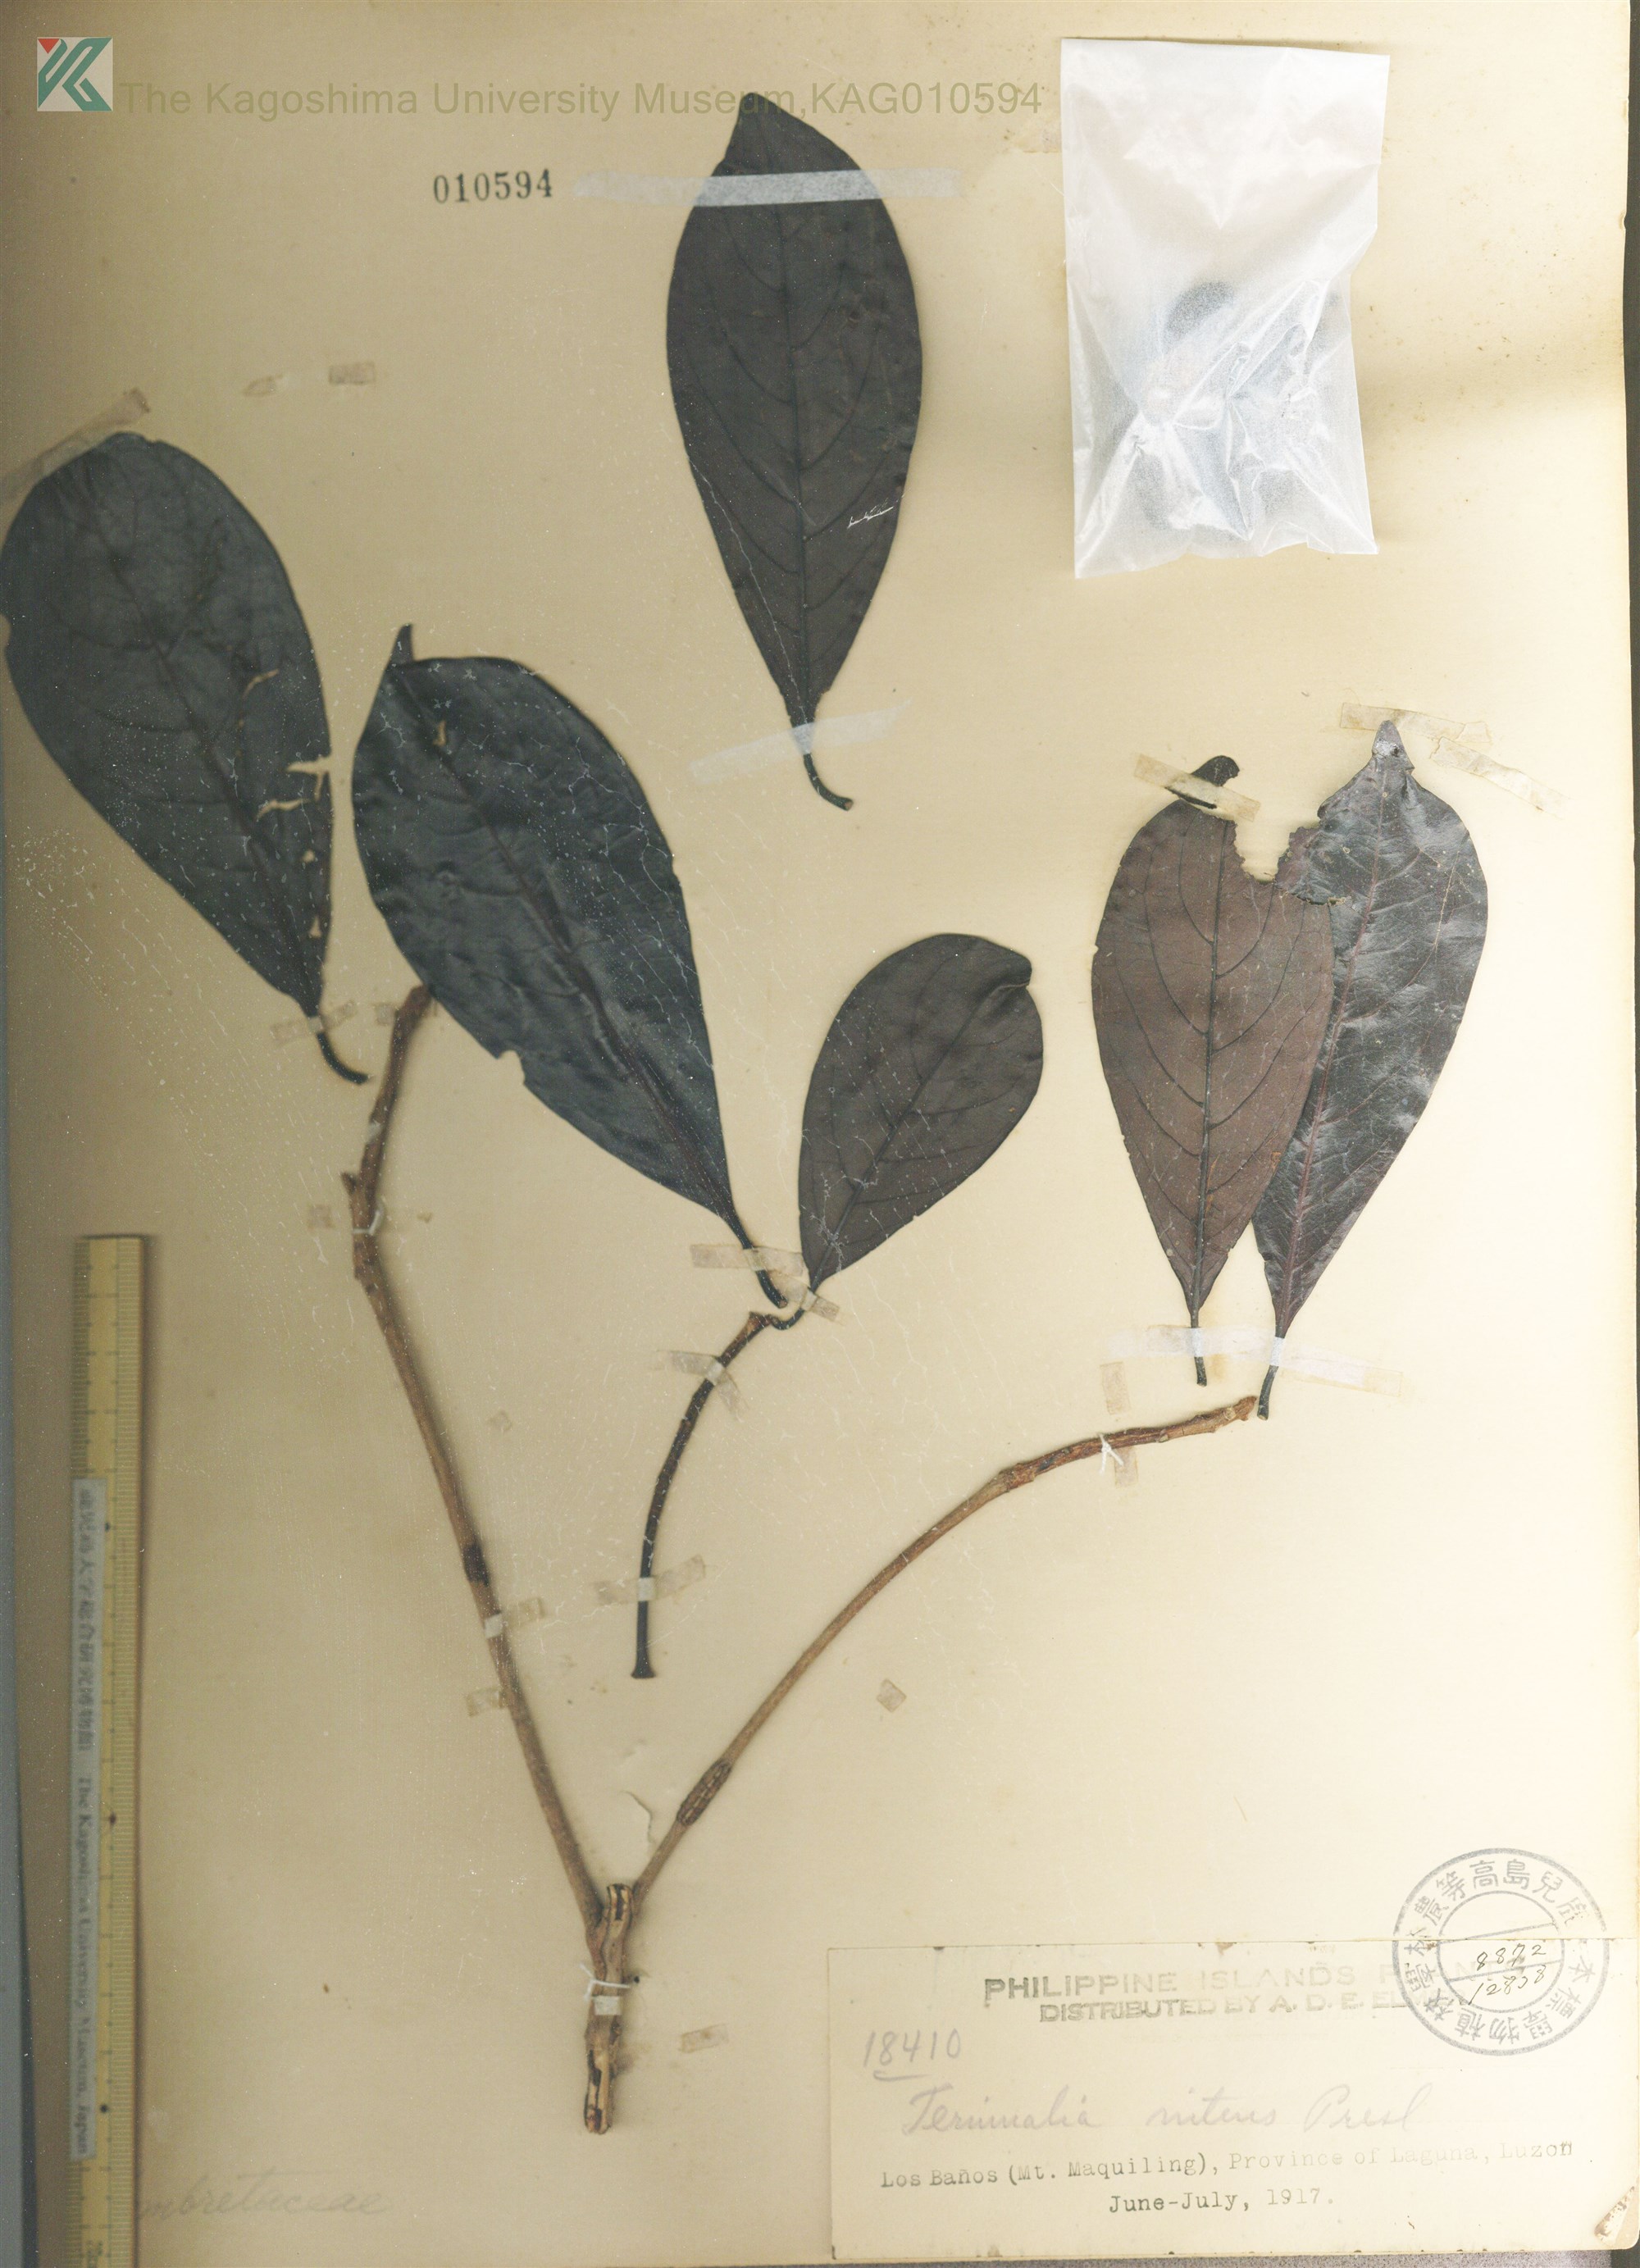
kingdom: Plantae
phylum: Tracheophyta
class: Magnoliopsida
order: Myrtales
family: Combretaceae
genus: Terminalia
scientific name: Terminalia nitens
